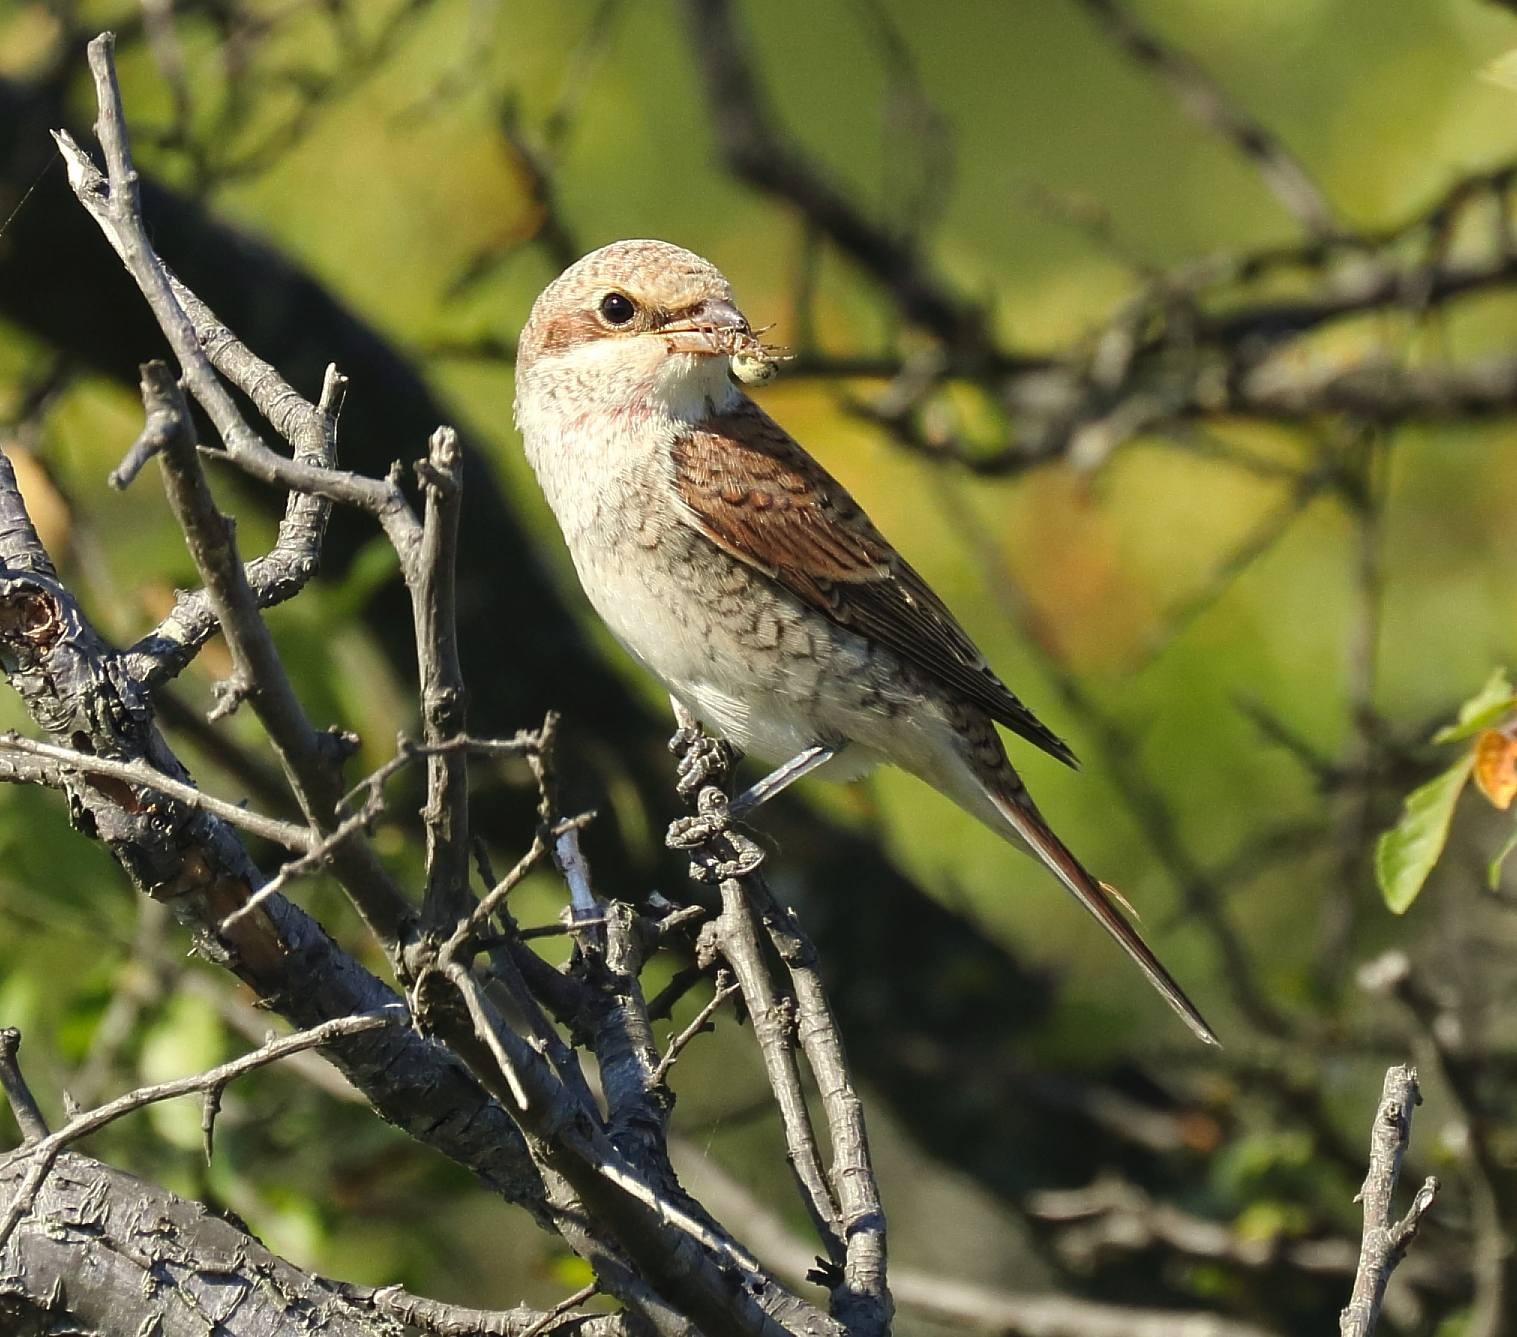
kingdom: Animalia
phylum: Chordata
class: Aves
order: Passeriformes
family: Laniidae
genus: Lanius
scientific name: Lanius collurio
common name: Rødrygget tornskade
